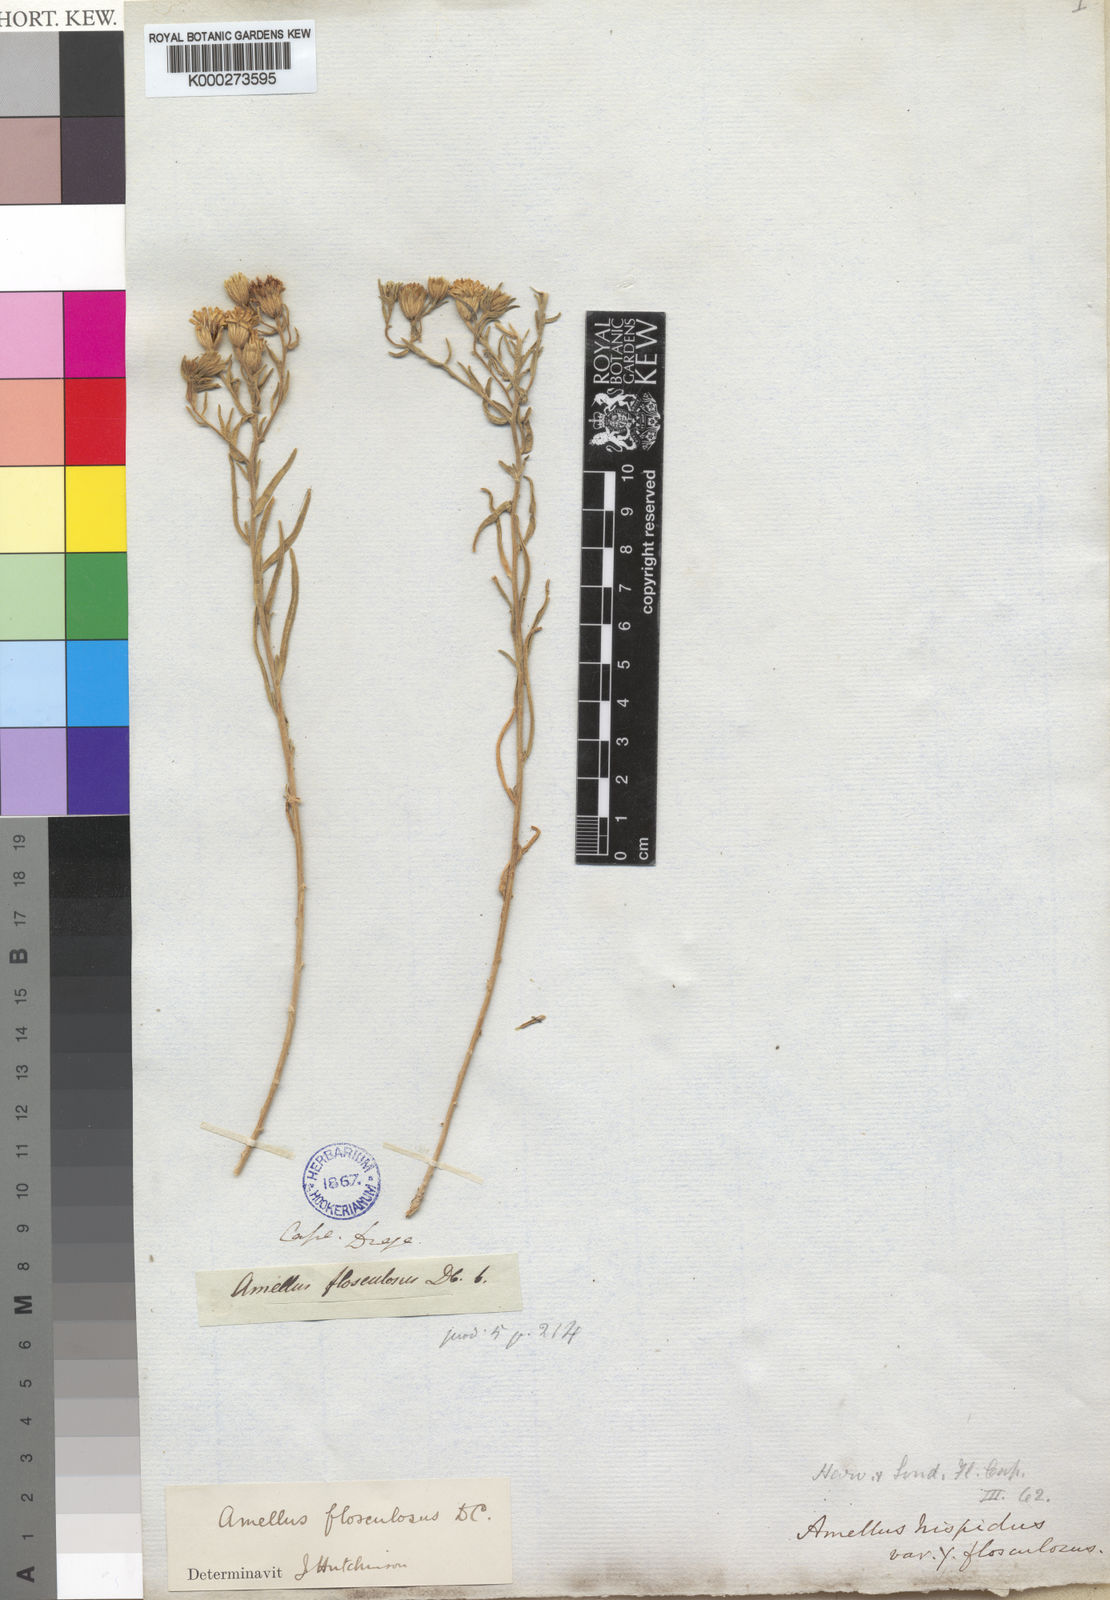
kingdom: Plantae
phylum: Tracheophyta
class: Magnoliopsida
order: Asterales
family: Asteraceae
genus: Amellus
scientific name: Amellus flosculosus
